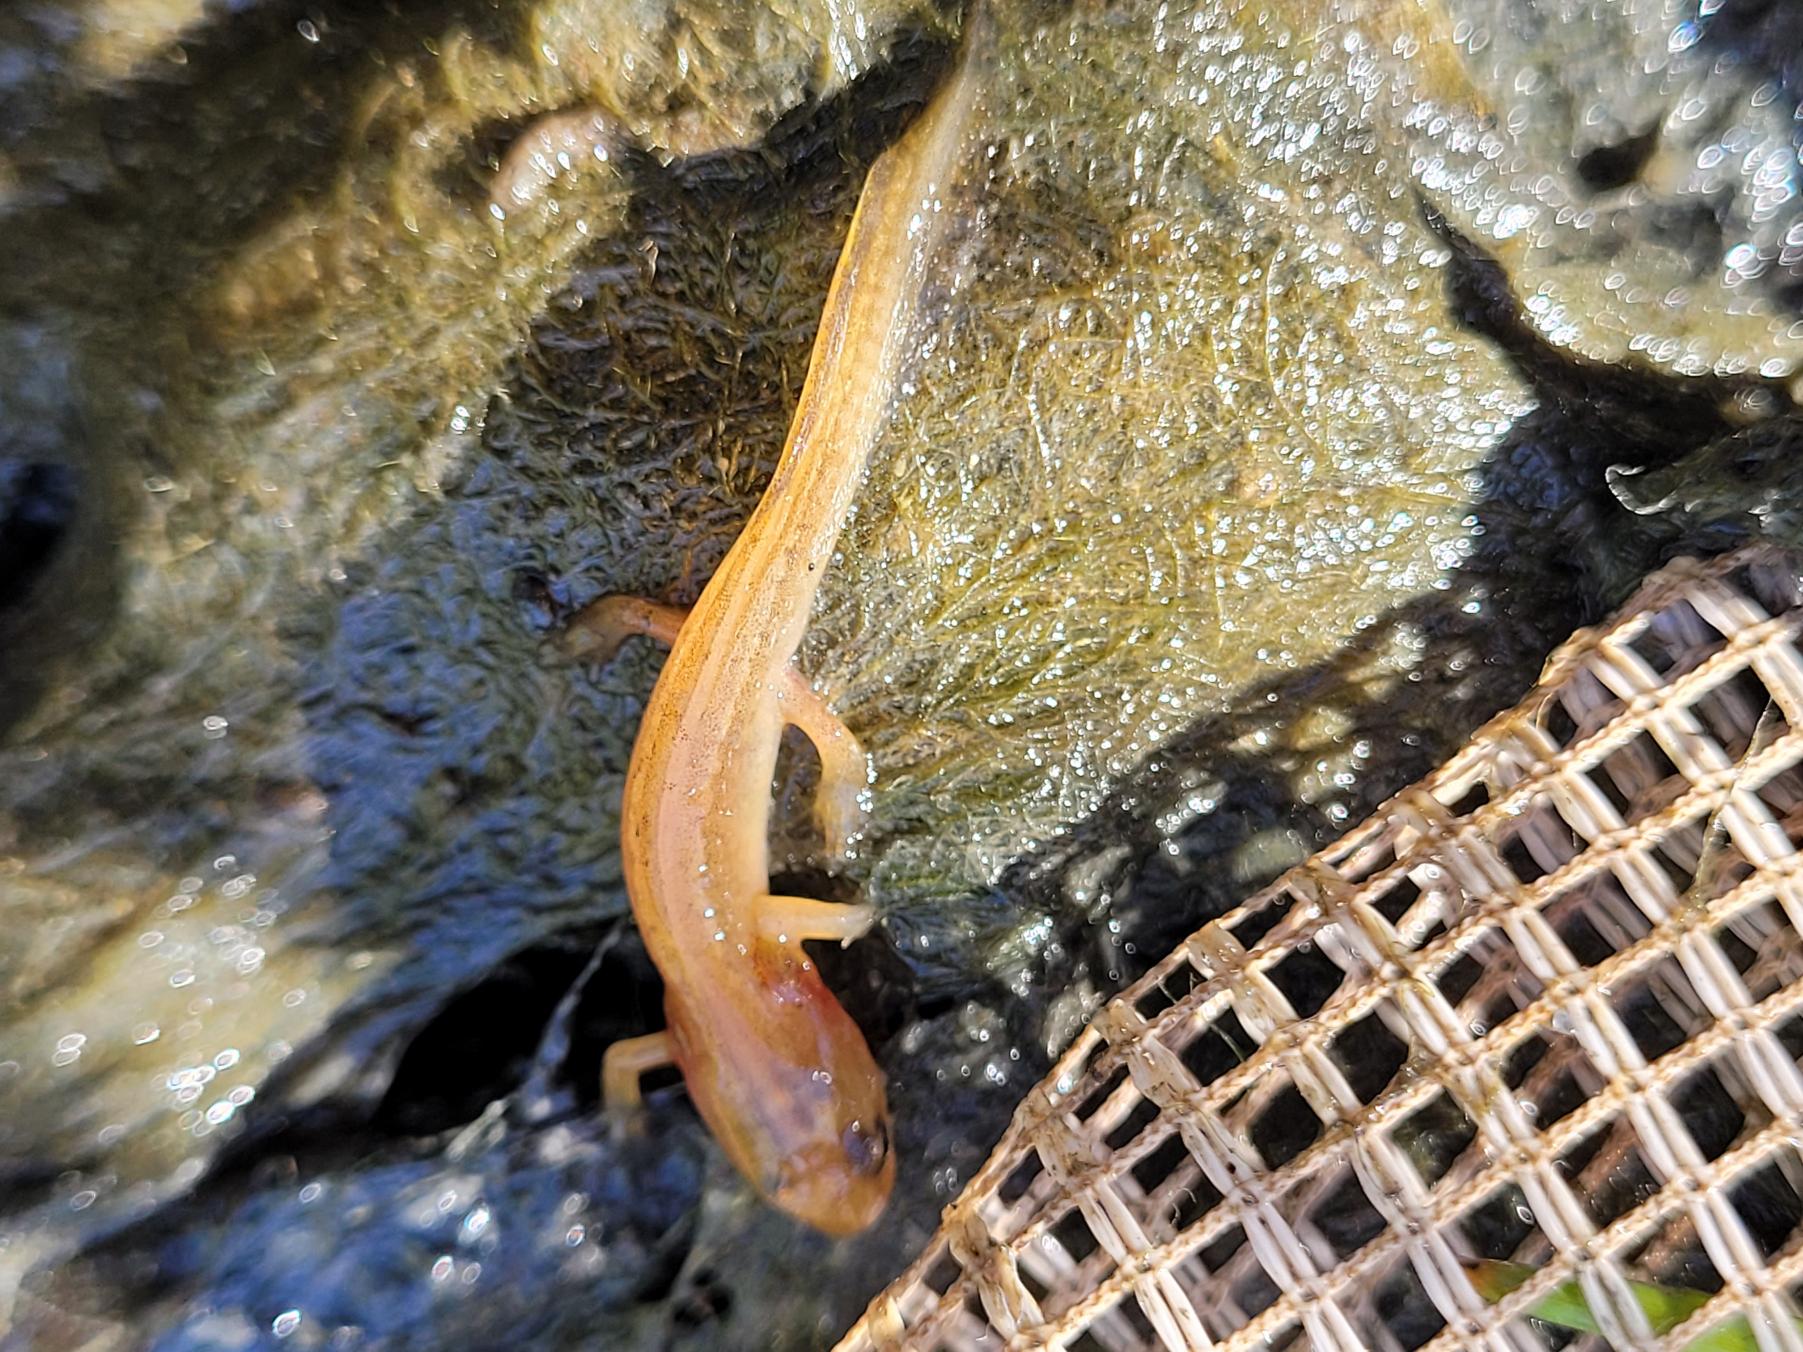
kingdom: Animalia
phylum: Chordata
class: Amphibia
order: Caudata
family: Salamandridae
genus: Lissotriton
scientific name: Lissotriton vulgaris
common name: Lille vandsalamander
